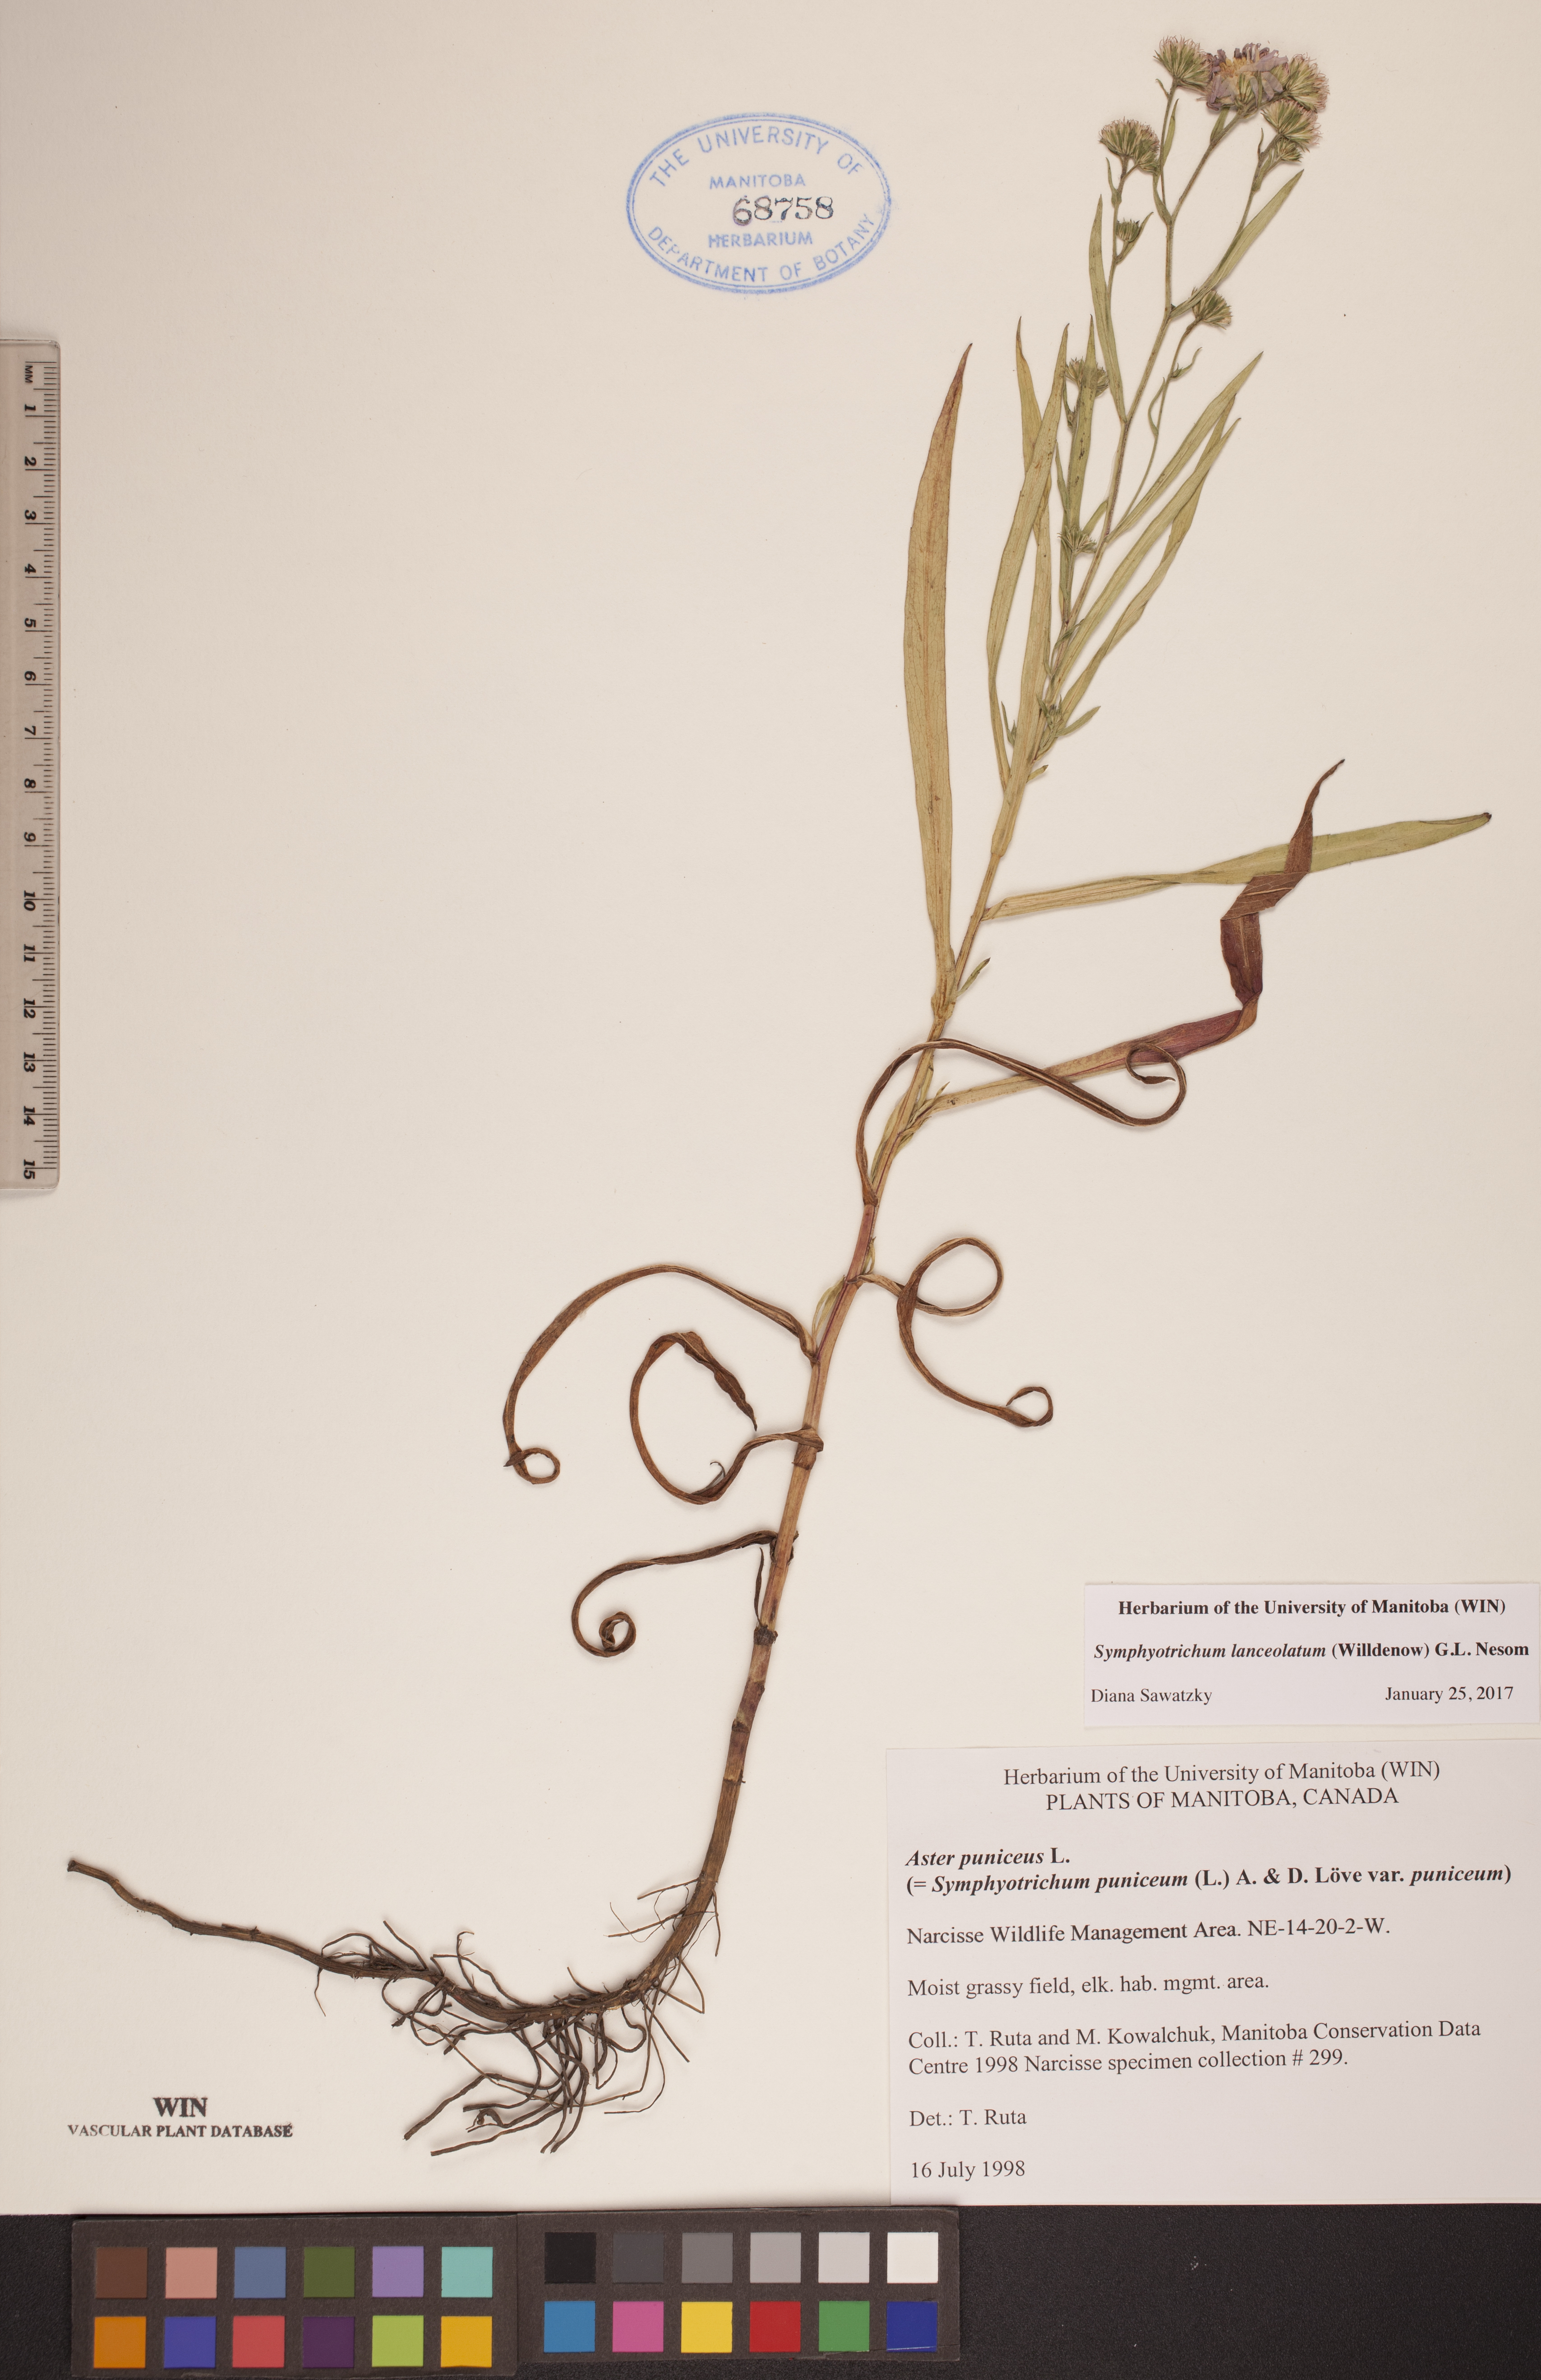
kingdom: Plantae
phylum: Tracheophyta
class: Magnoliopsida
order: Asterales
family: Asteraceae
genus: Symphyotrichum
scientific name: Symphyotrichum lanceolatum
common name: Panicled aster
